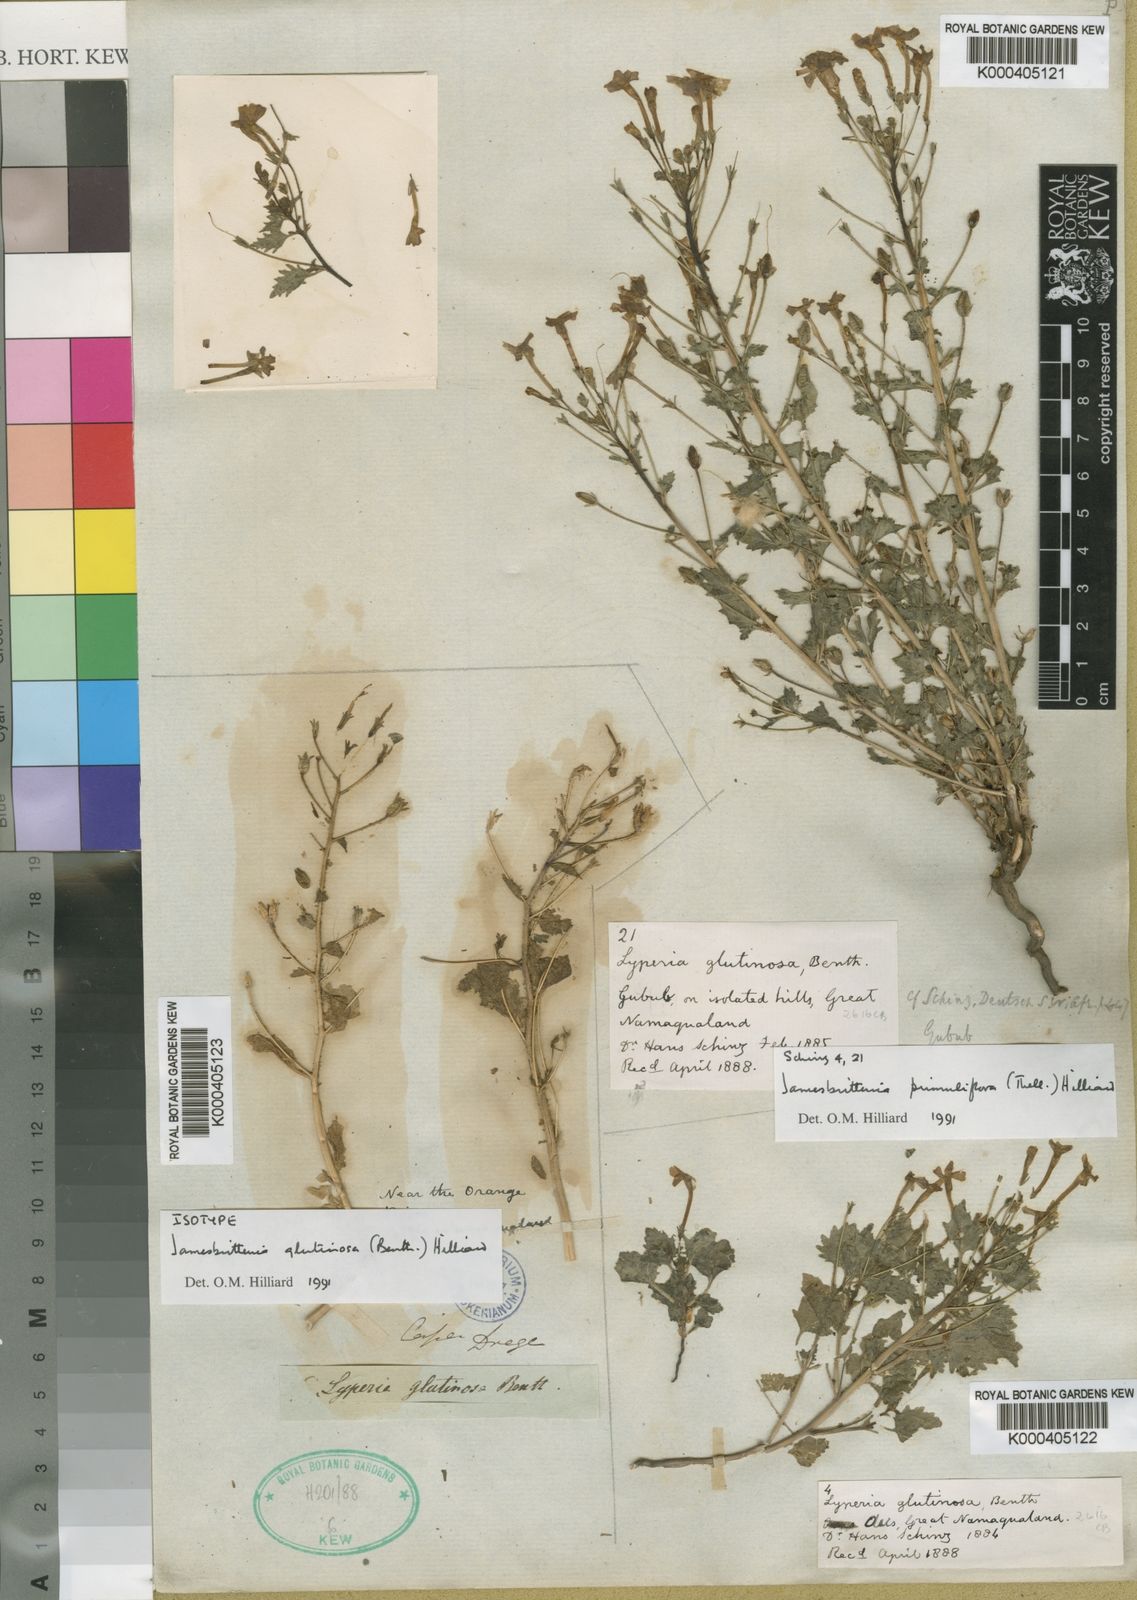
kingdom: Plantae
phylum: Tracheophyta
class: Magnoliopsida
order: Lamiales
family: Scrophulariaceae
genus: Jamesbrittenia
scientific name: Jamesbrittenia glutinosa
